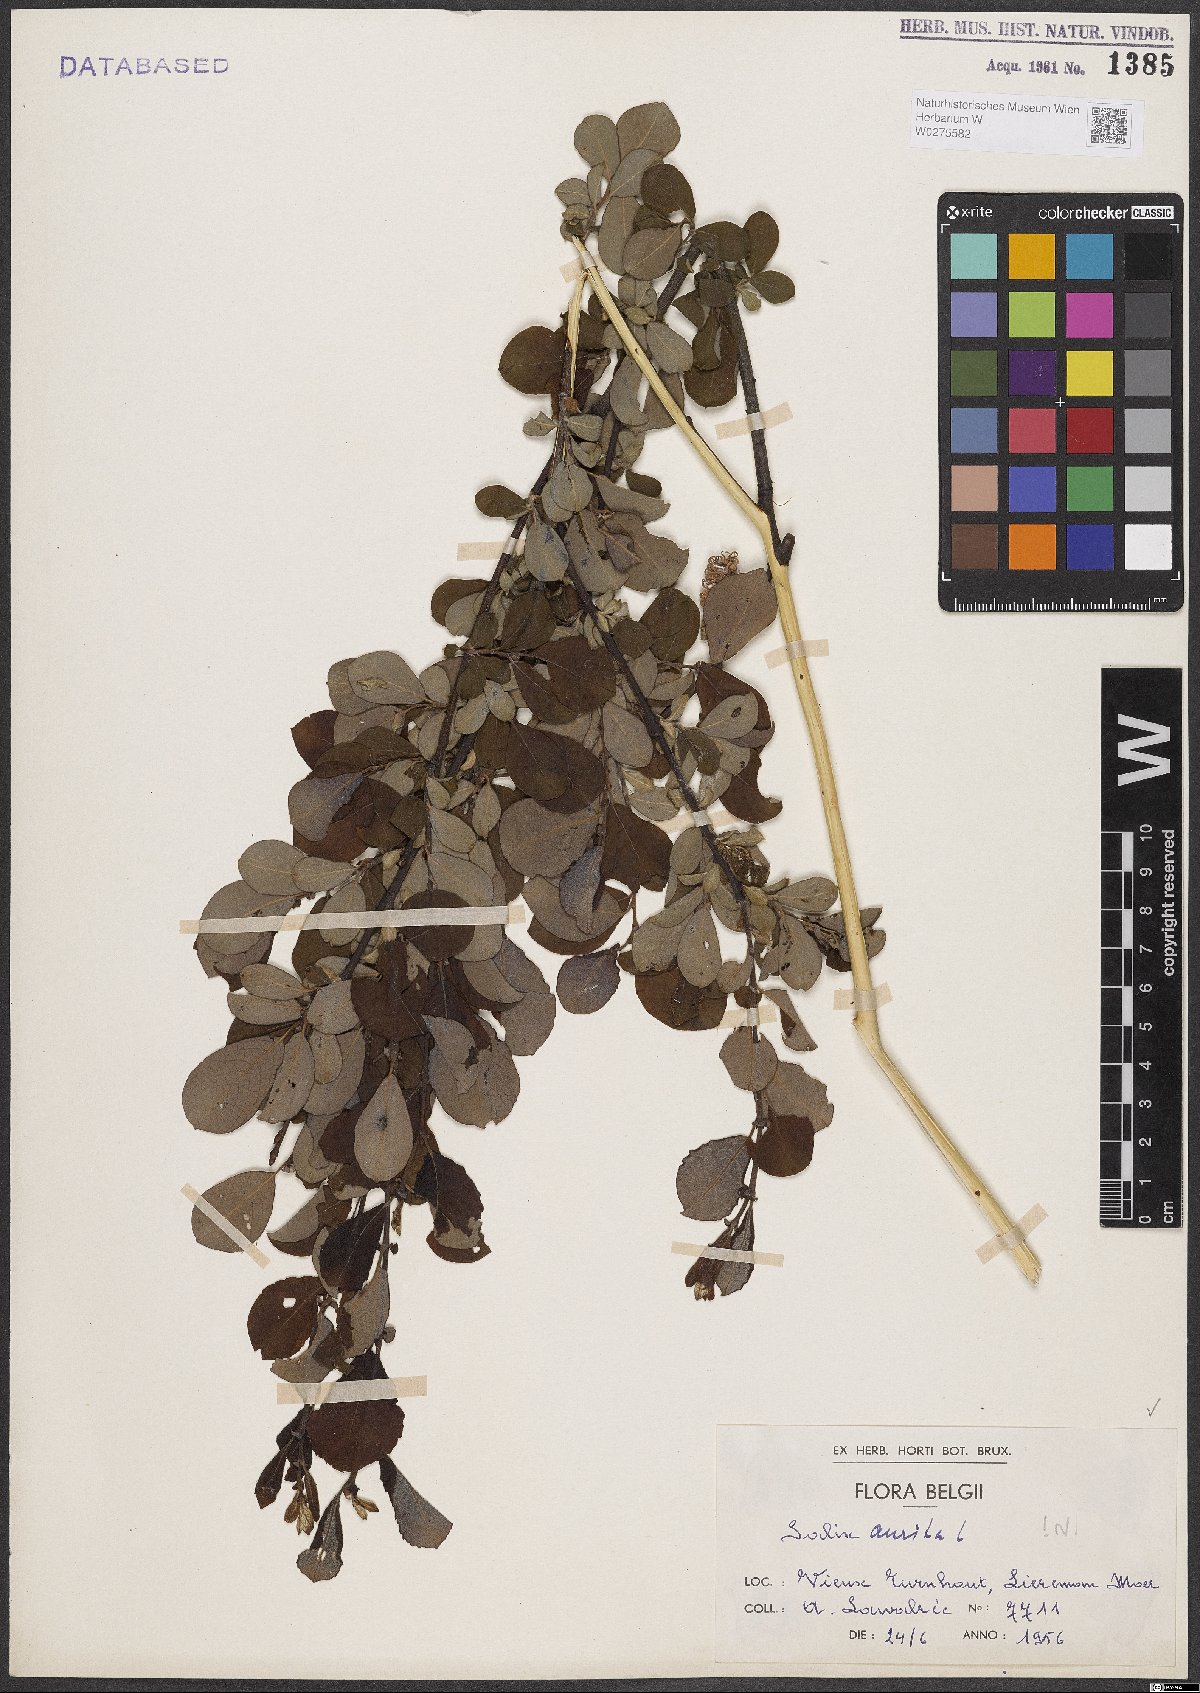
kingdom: Plantae
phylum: Tracheophyta
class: Magnoliopsida
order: Malpighiales
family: Salicaceae
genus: Salix
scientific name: Salix aurita
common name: Eared willow
